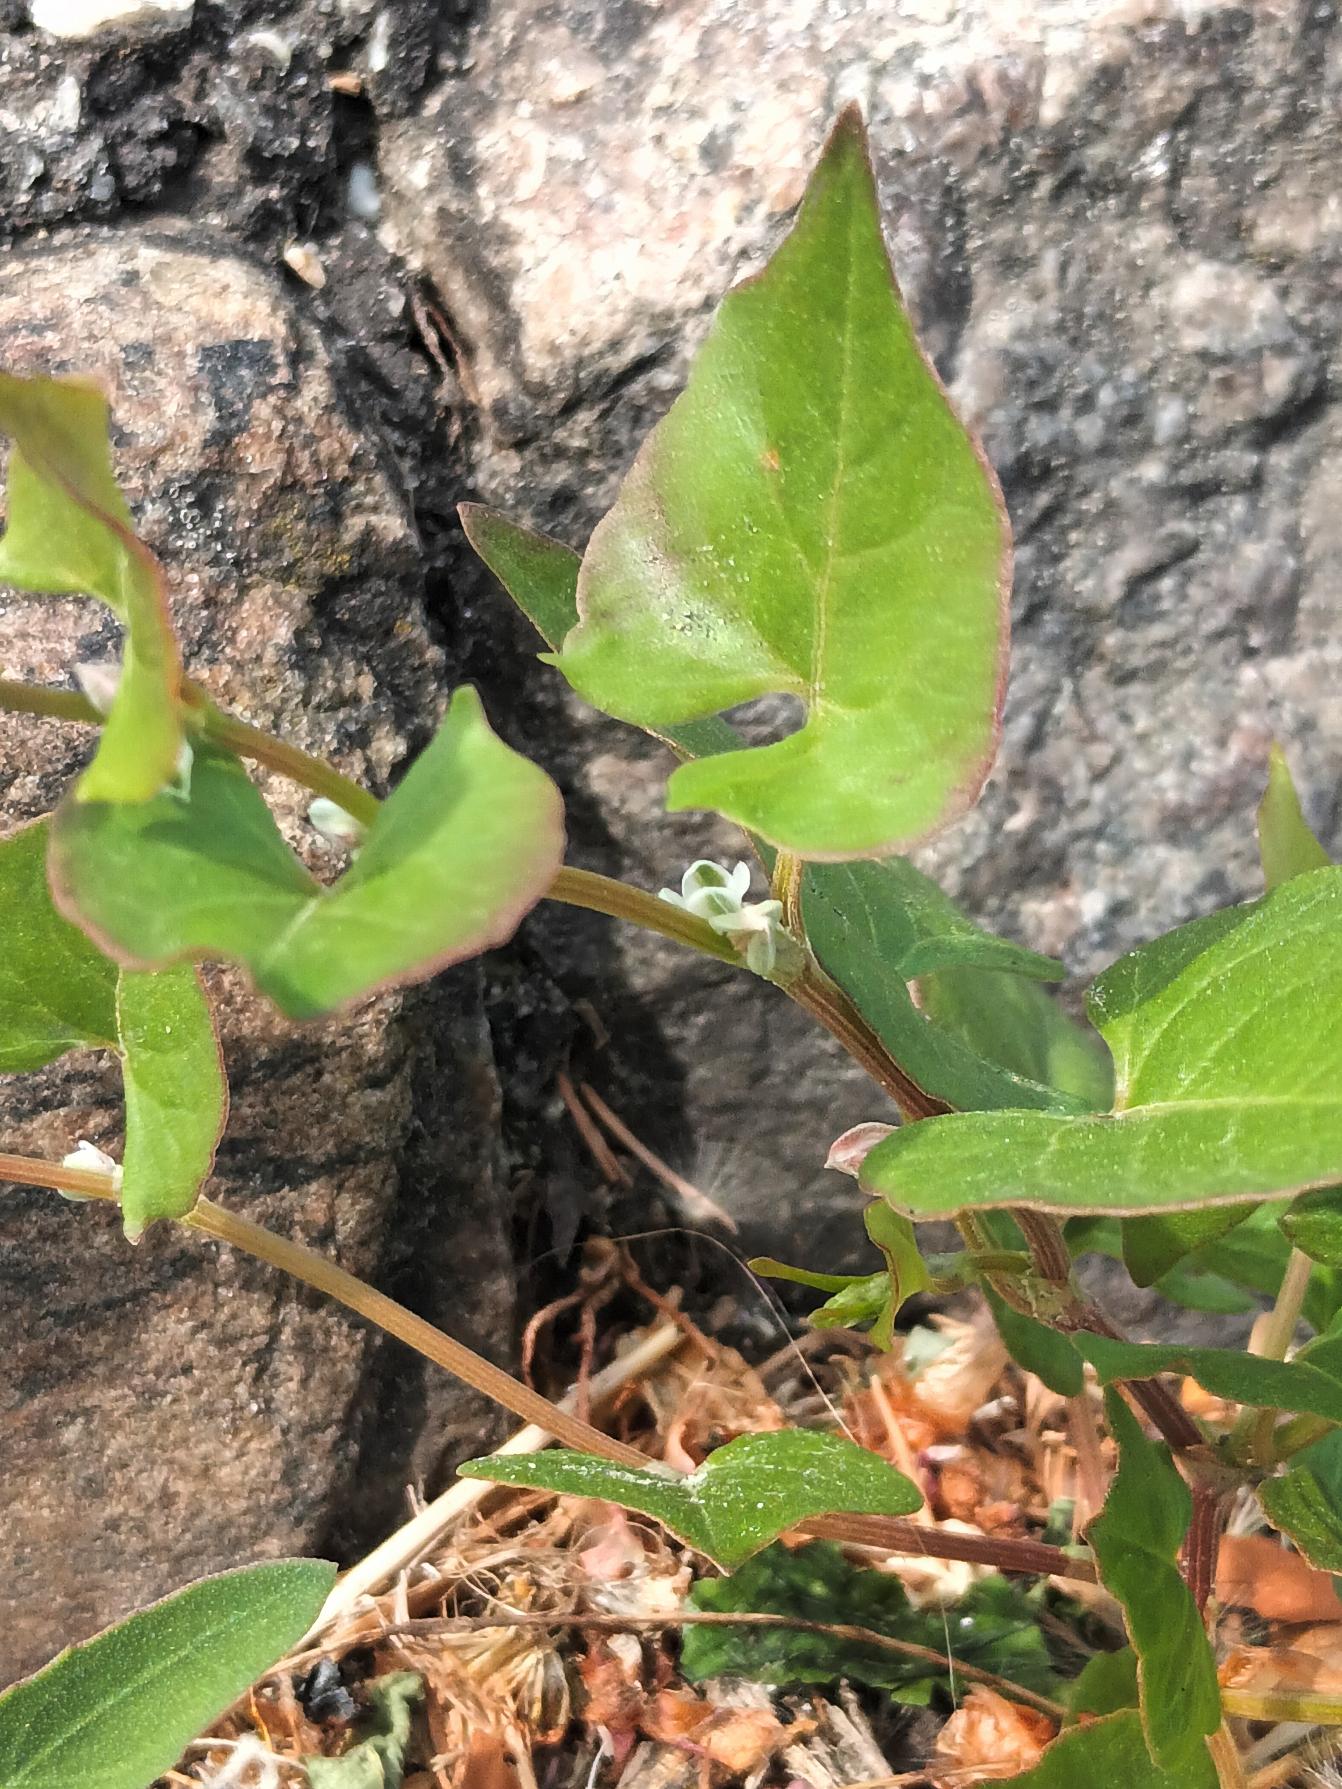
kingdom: Plantae
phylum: Tracheophyta
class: Magnoliopsida
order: Caryophyllales
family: Polygonaceae
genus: Fallopia
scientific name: Fallopia convolvulus
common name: Snerle-pileurt
